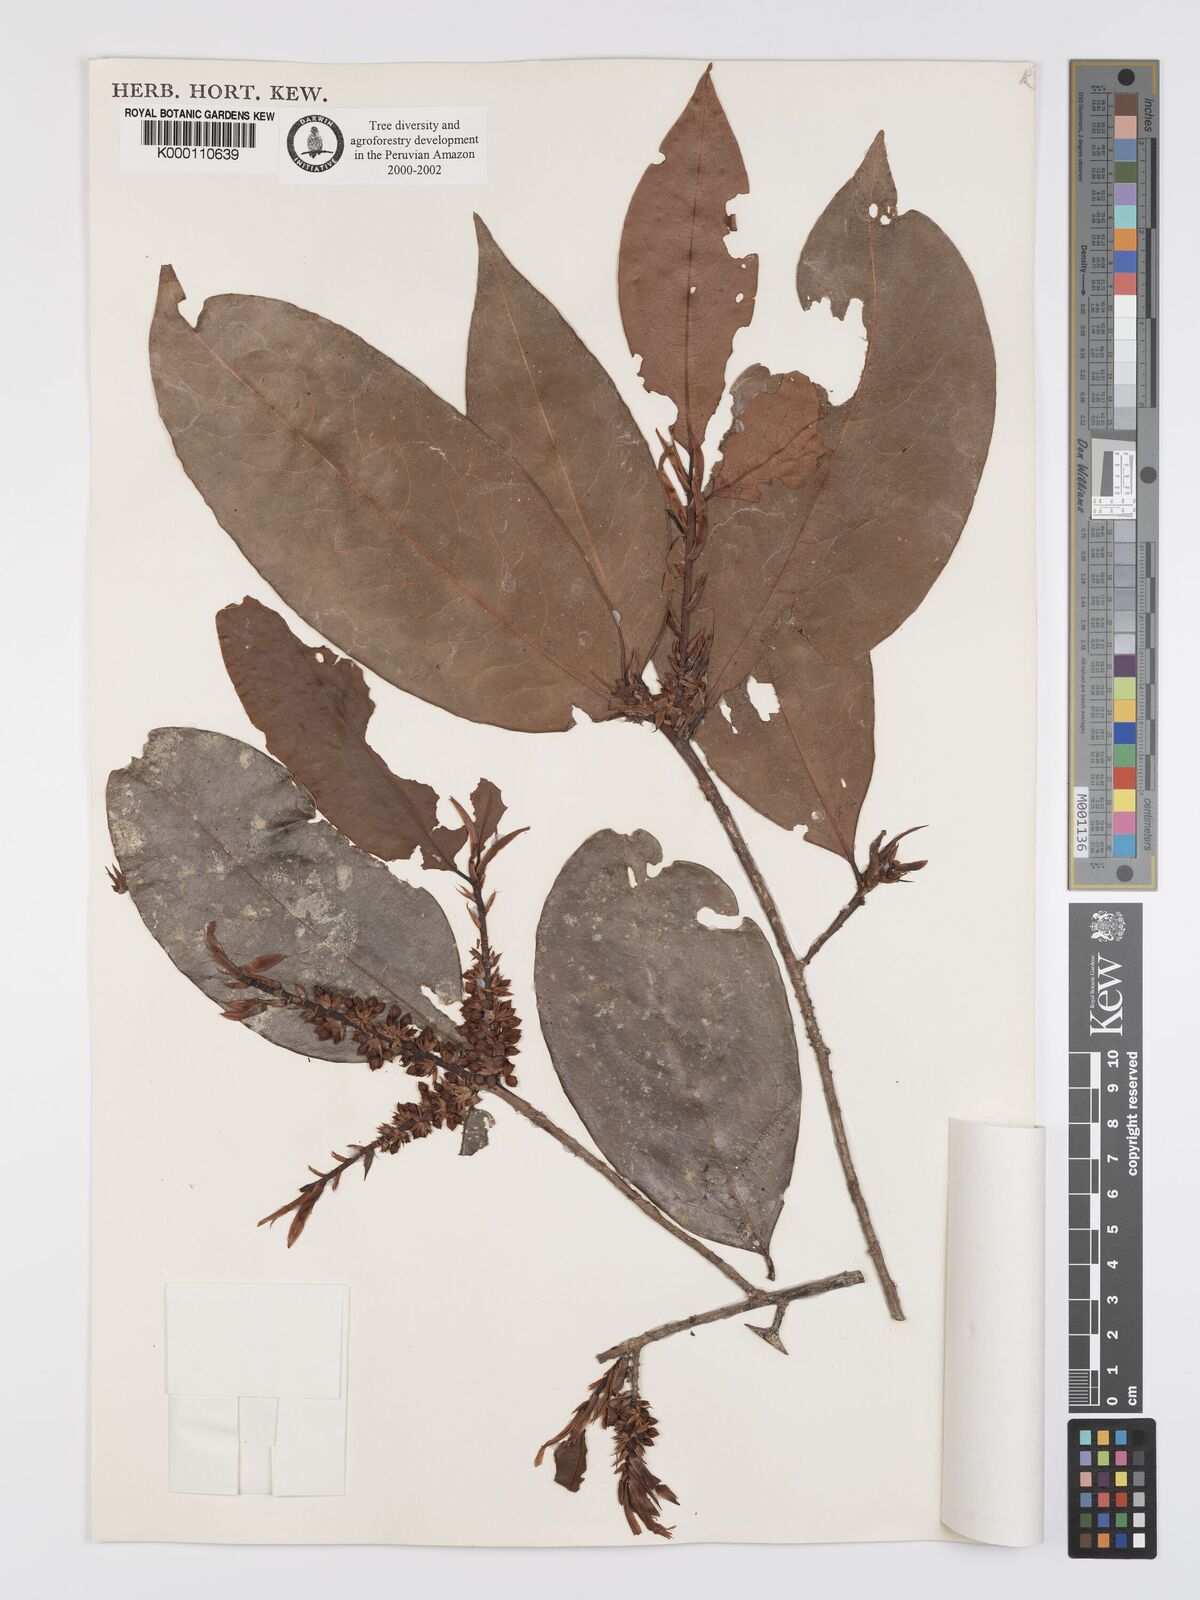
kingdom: Plantae
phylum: Tracheophyta
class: Magnoliopsida
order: Malpighiales
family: Erythroxylaceae
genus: Erythroxylum
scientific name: Erythroxylum
